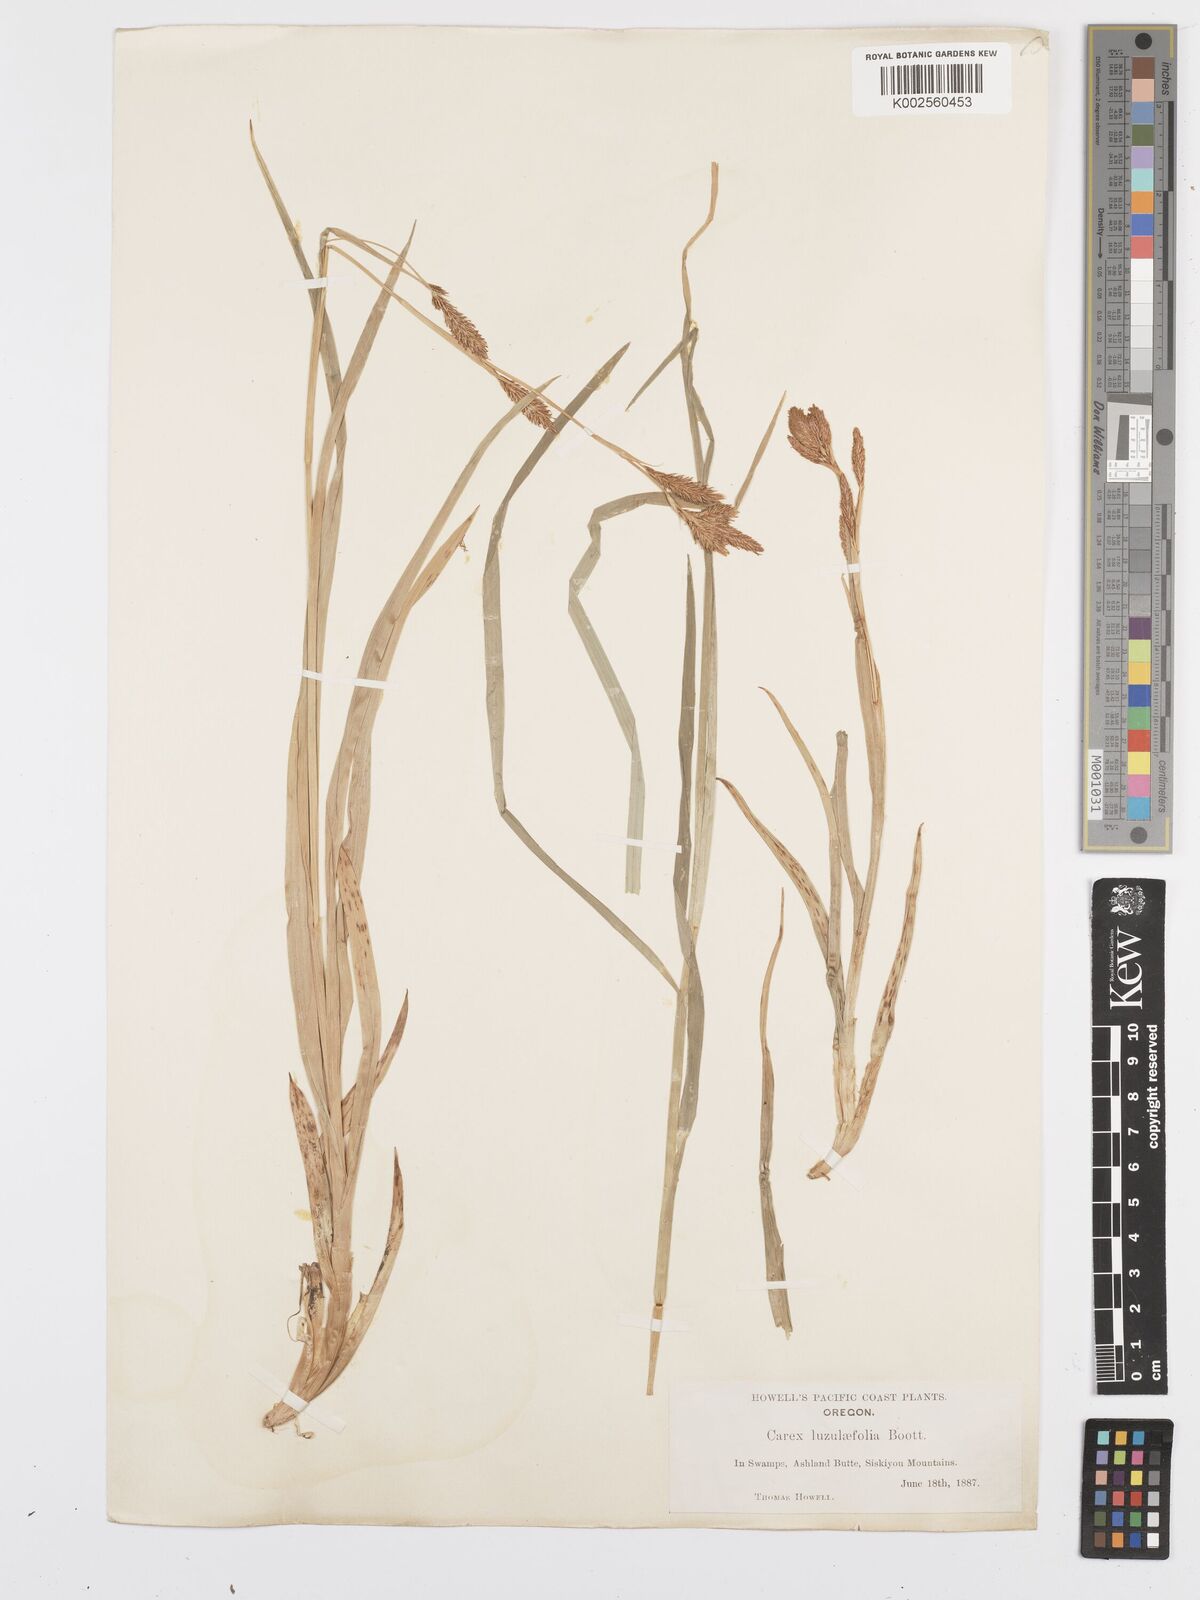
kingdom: Plantae
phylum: Tracheophyta
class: Liliopsida
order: Poales
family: Cyperaceae
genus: Carex
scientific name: Carex luzulifolia
